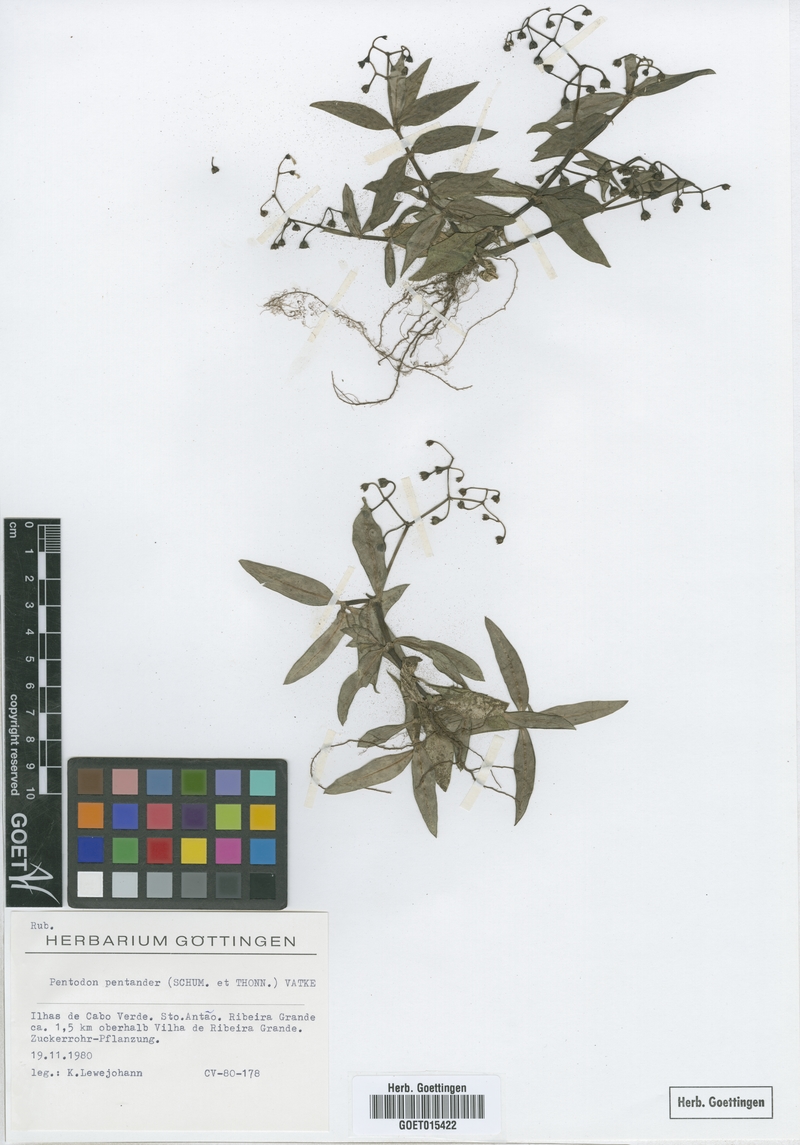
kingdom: Plantae
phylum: Tracheophyta
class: Magnoliopsida
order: Gentianales
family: Rubiaceae
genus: Pentodon
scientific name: Pentodon pentandrus
